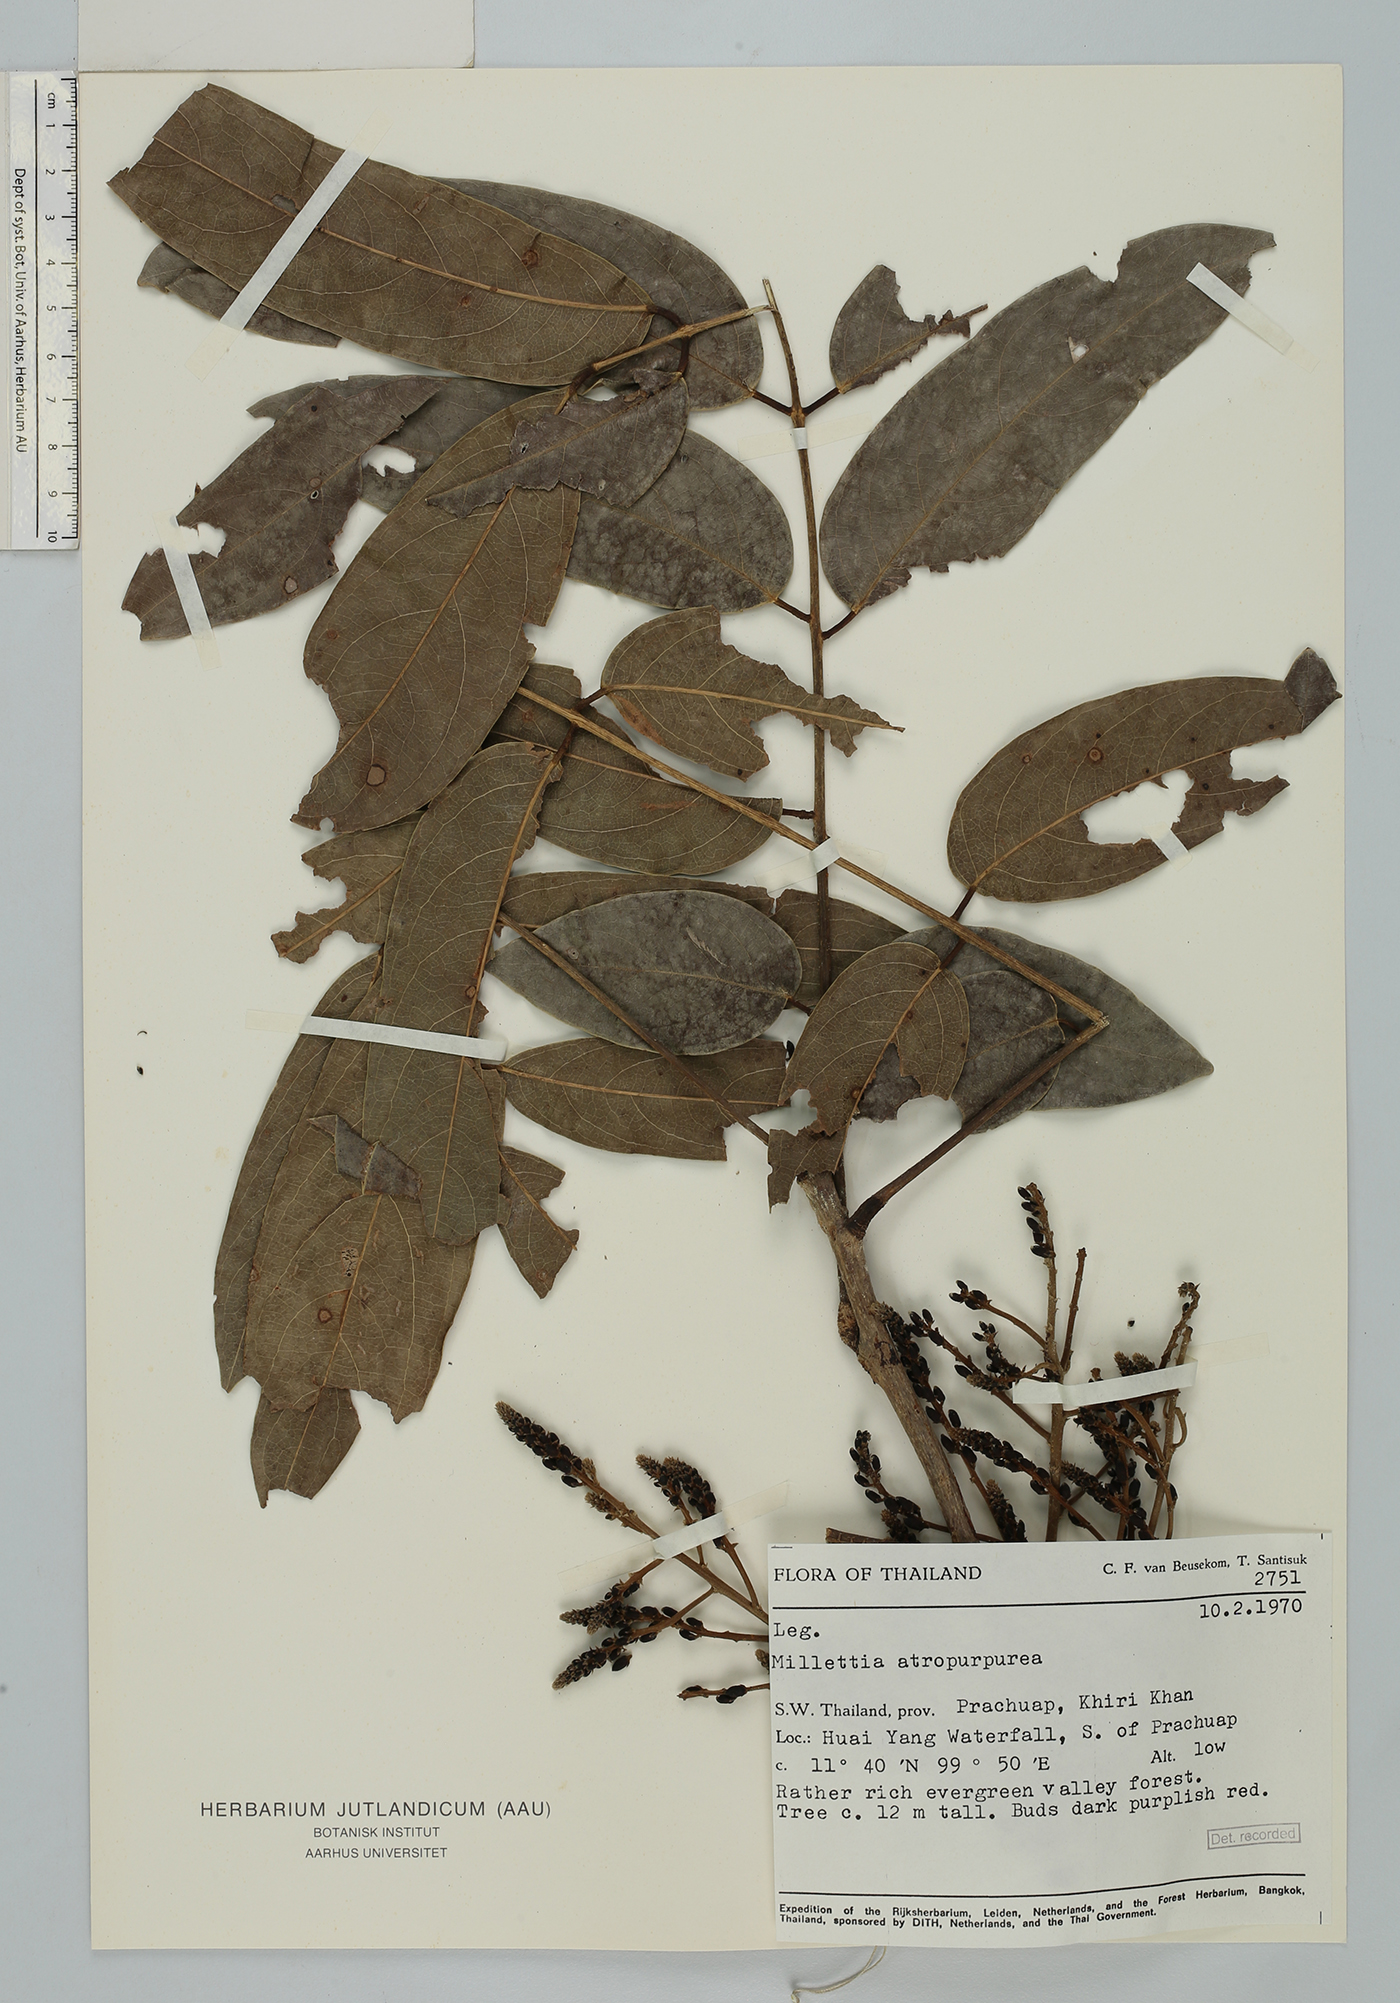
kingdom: Plantae
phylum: Tracheophyta
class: Magnoliopsida
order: Fabales
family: Fabaceae
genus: Adinobotrys
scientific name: Adinobotrys atropurpureus
